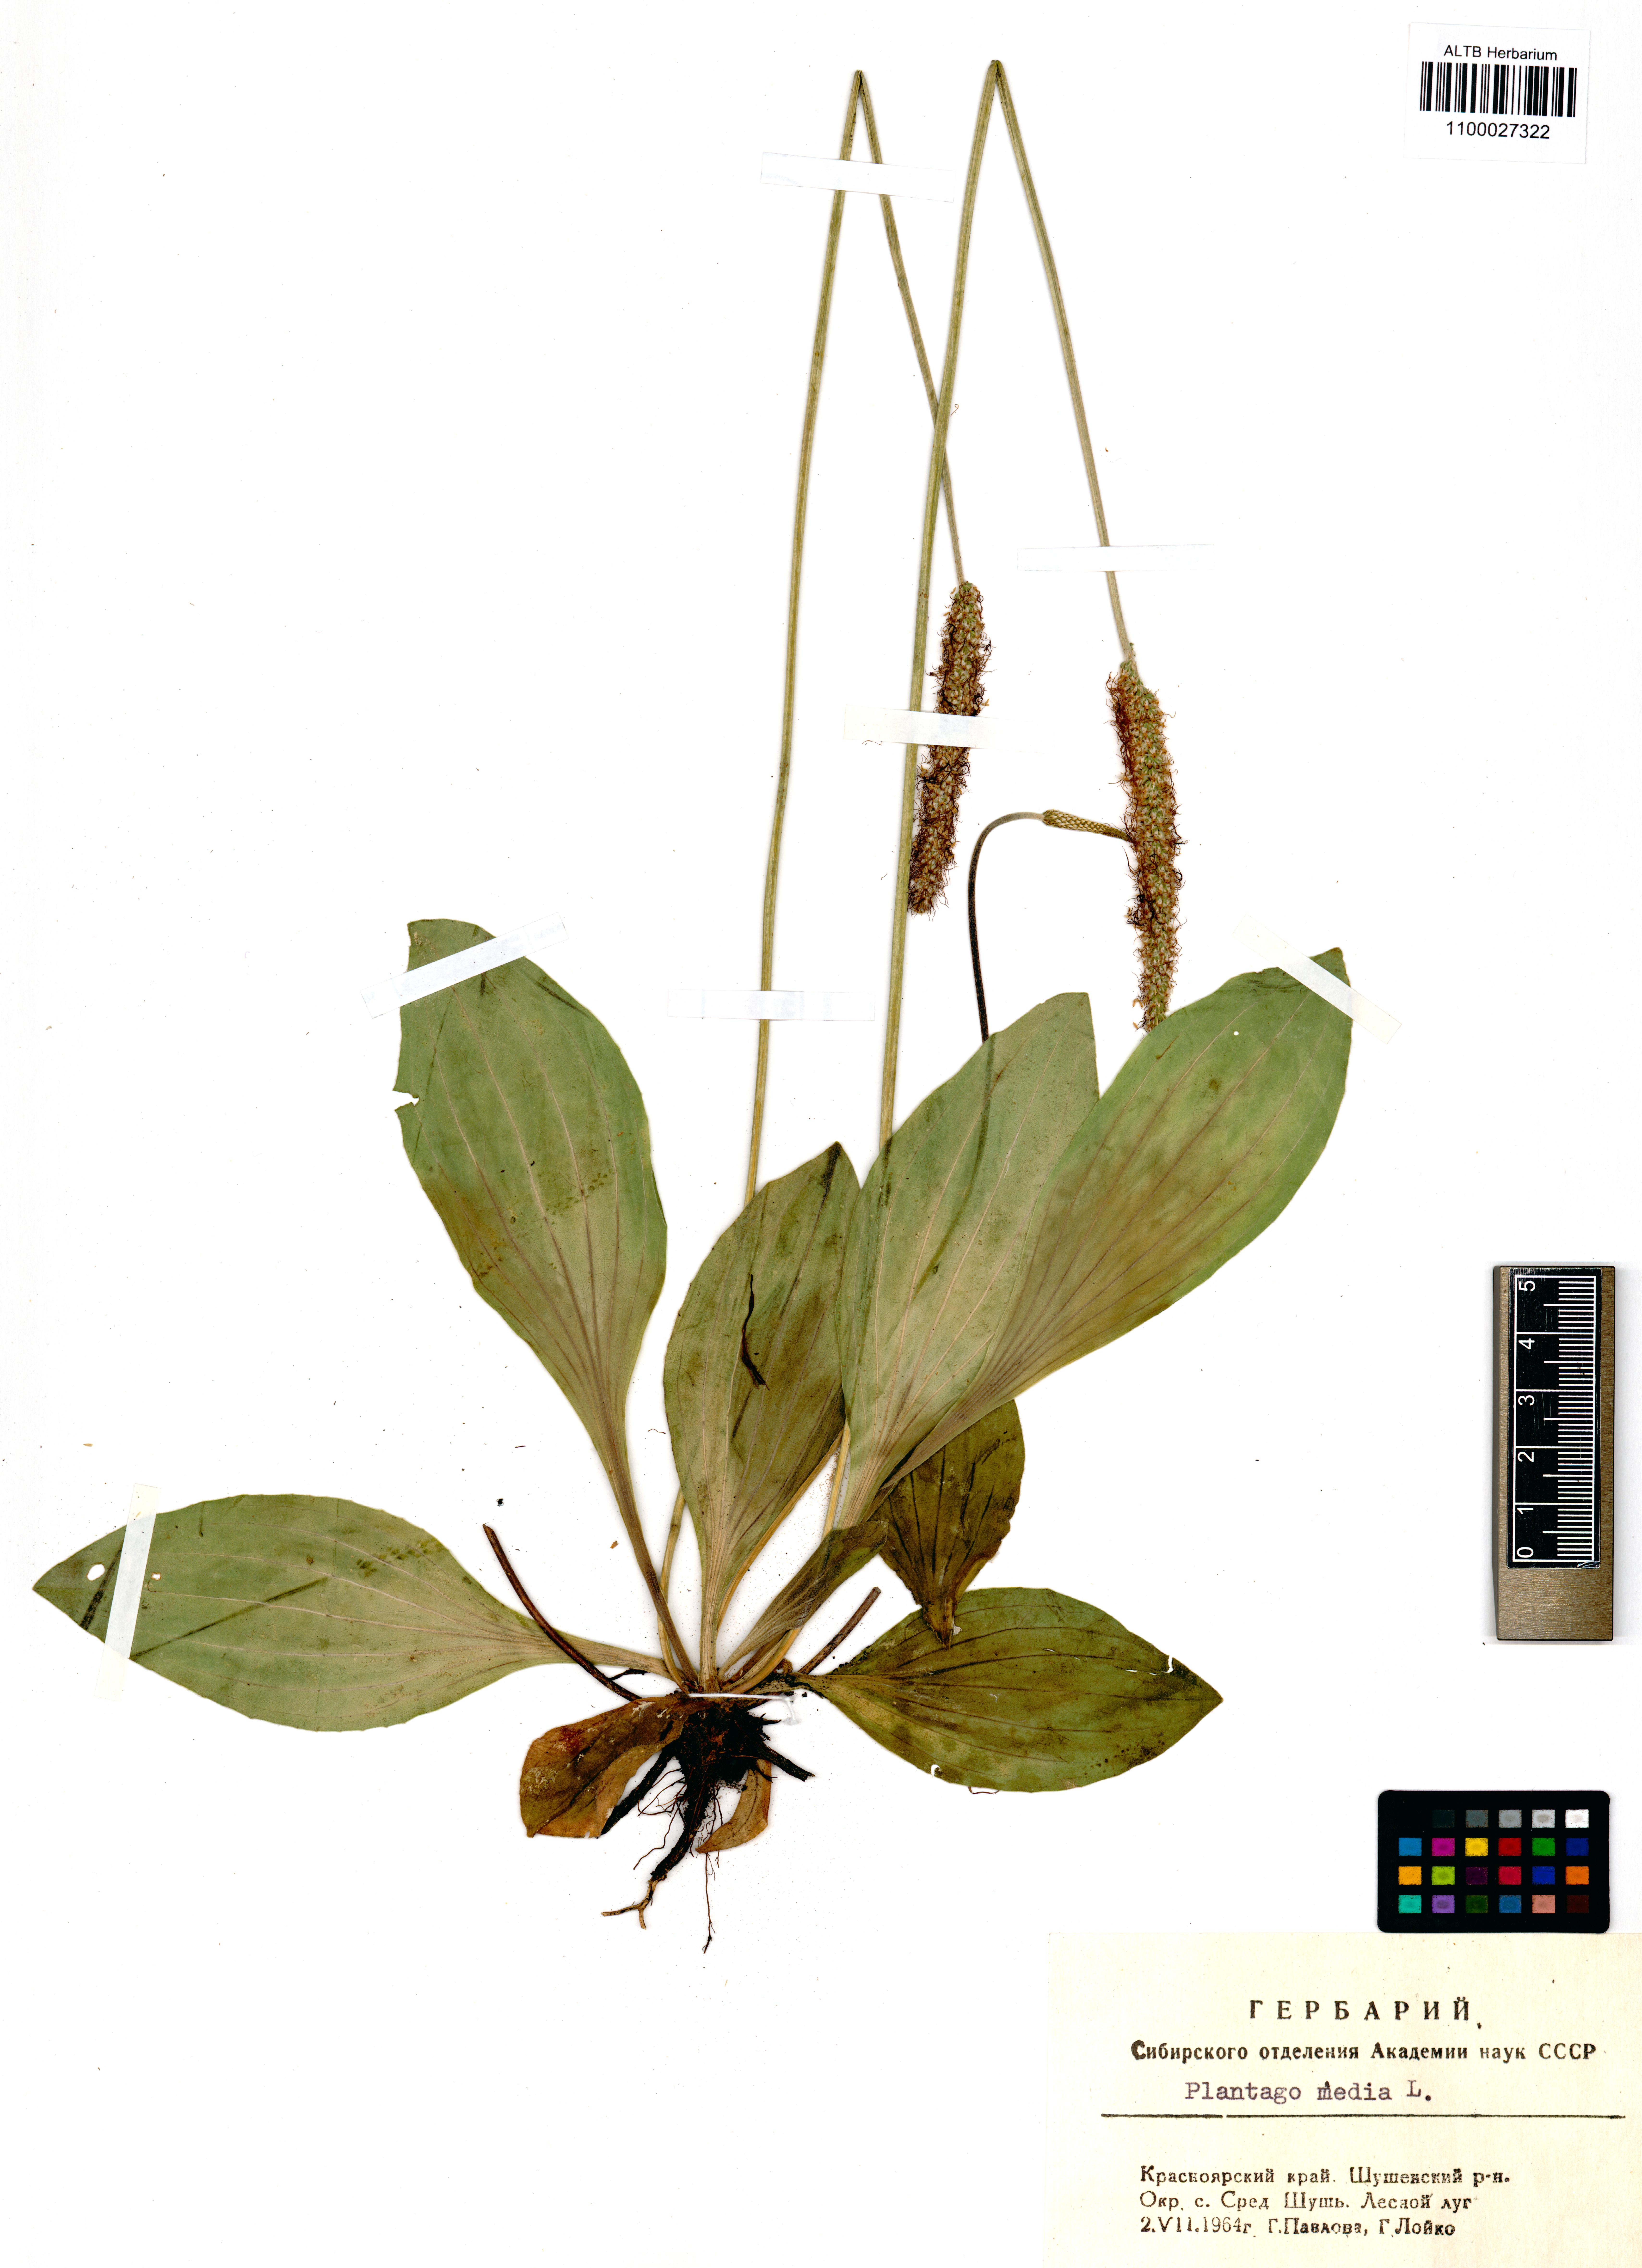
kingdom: Plantae
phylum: Tracheophyta
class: Magnoliopsida
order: Lamiales
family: Plantaginaceae
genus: Plantago
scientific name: Plantago media
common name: Hoary plantain
